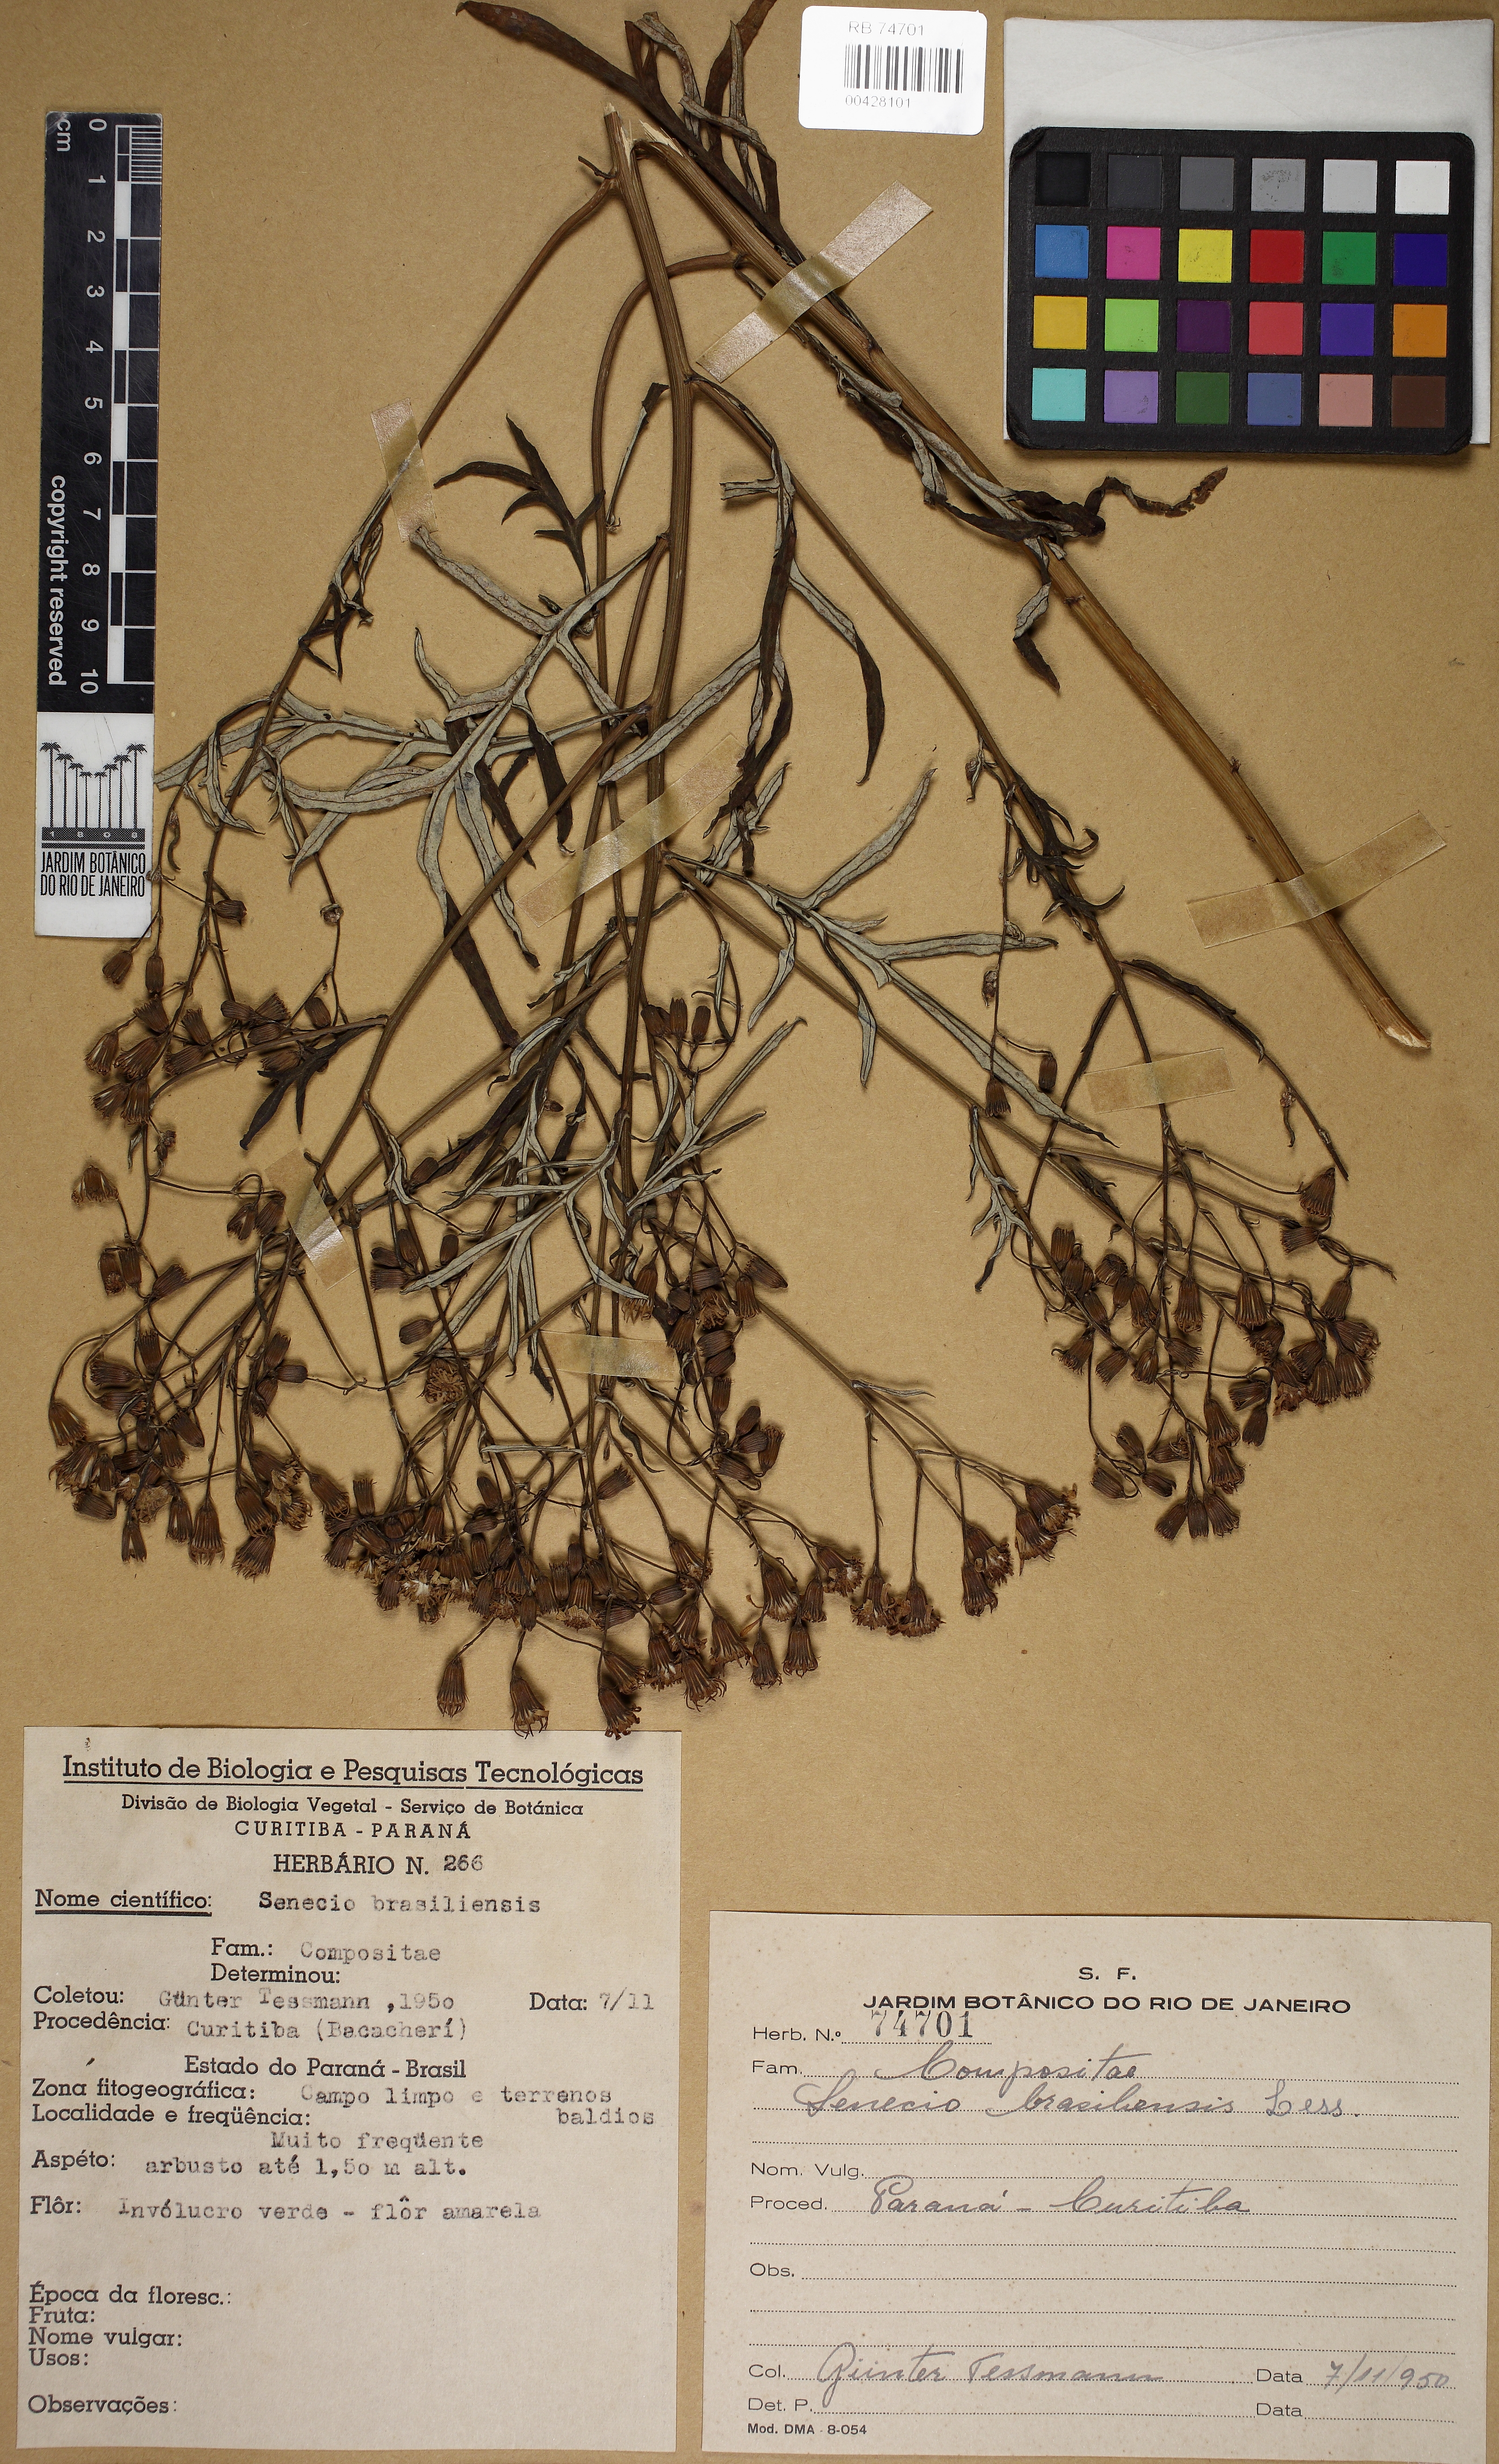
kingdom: Plantae
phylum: Tracheophyta
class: Magnoliopsida
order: Asterales
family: Asteraceae
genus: Senecio
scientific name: Senecio brasiliensis
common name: Hemp-leaf ragwort
